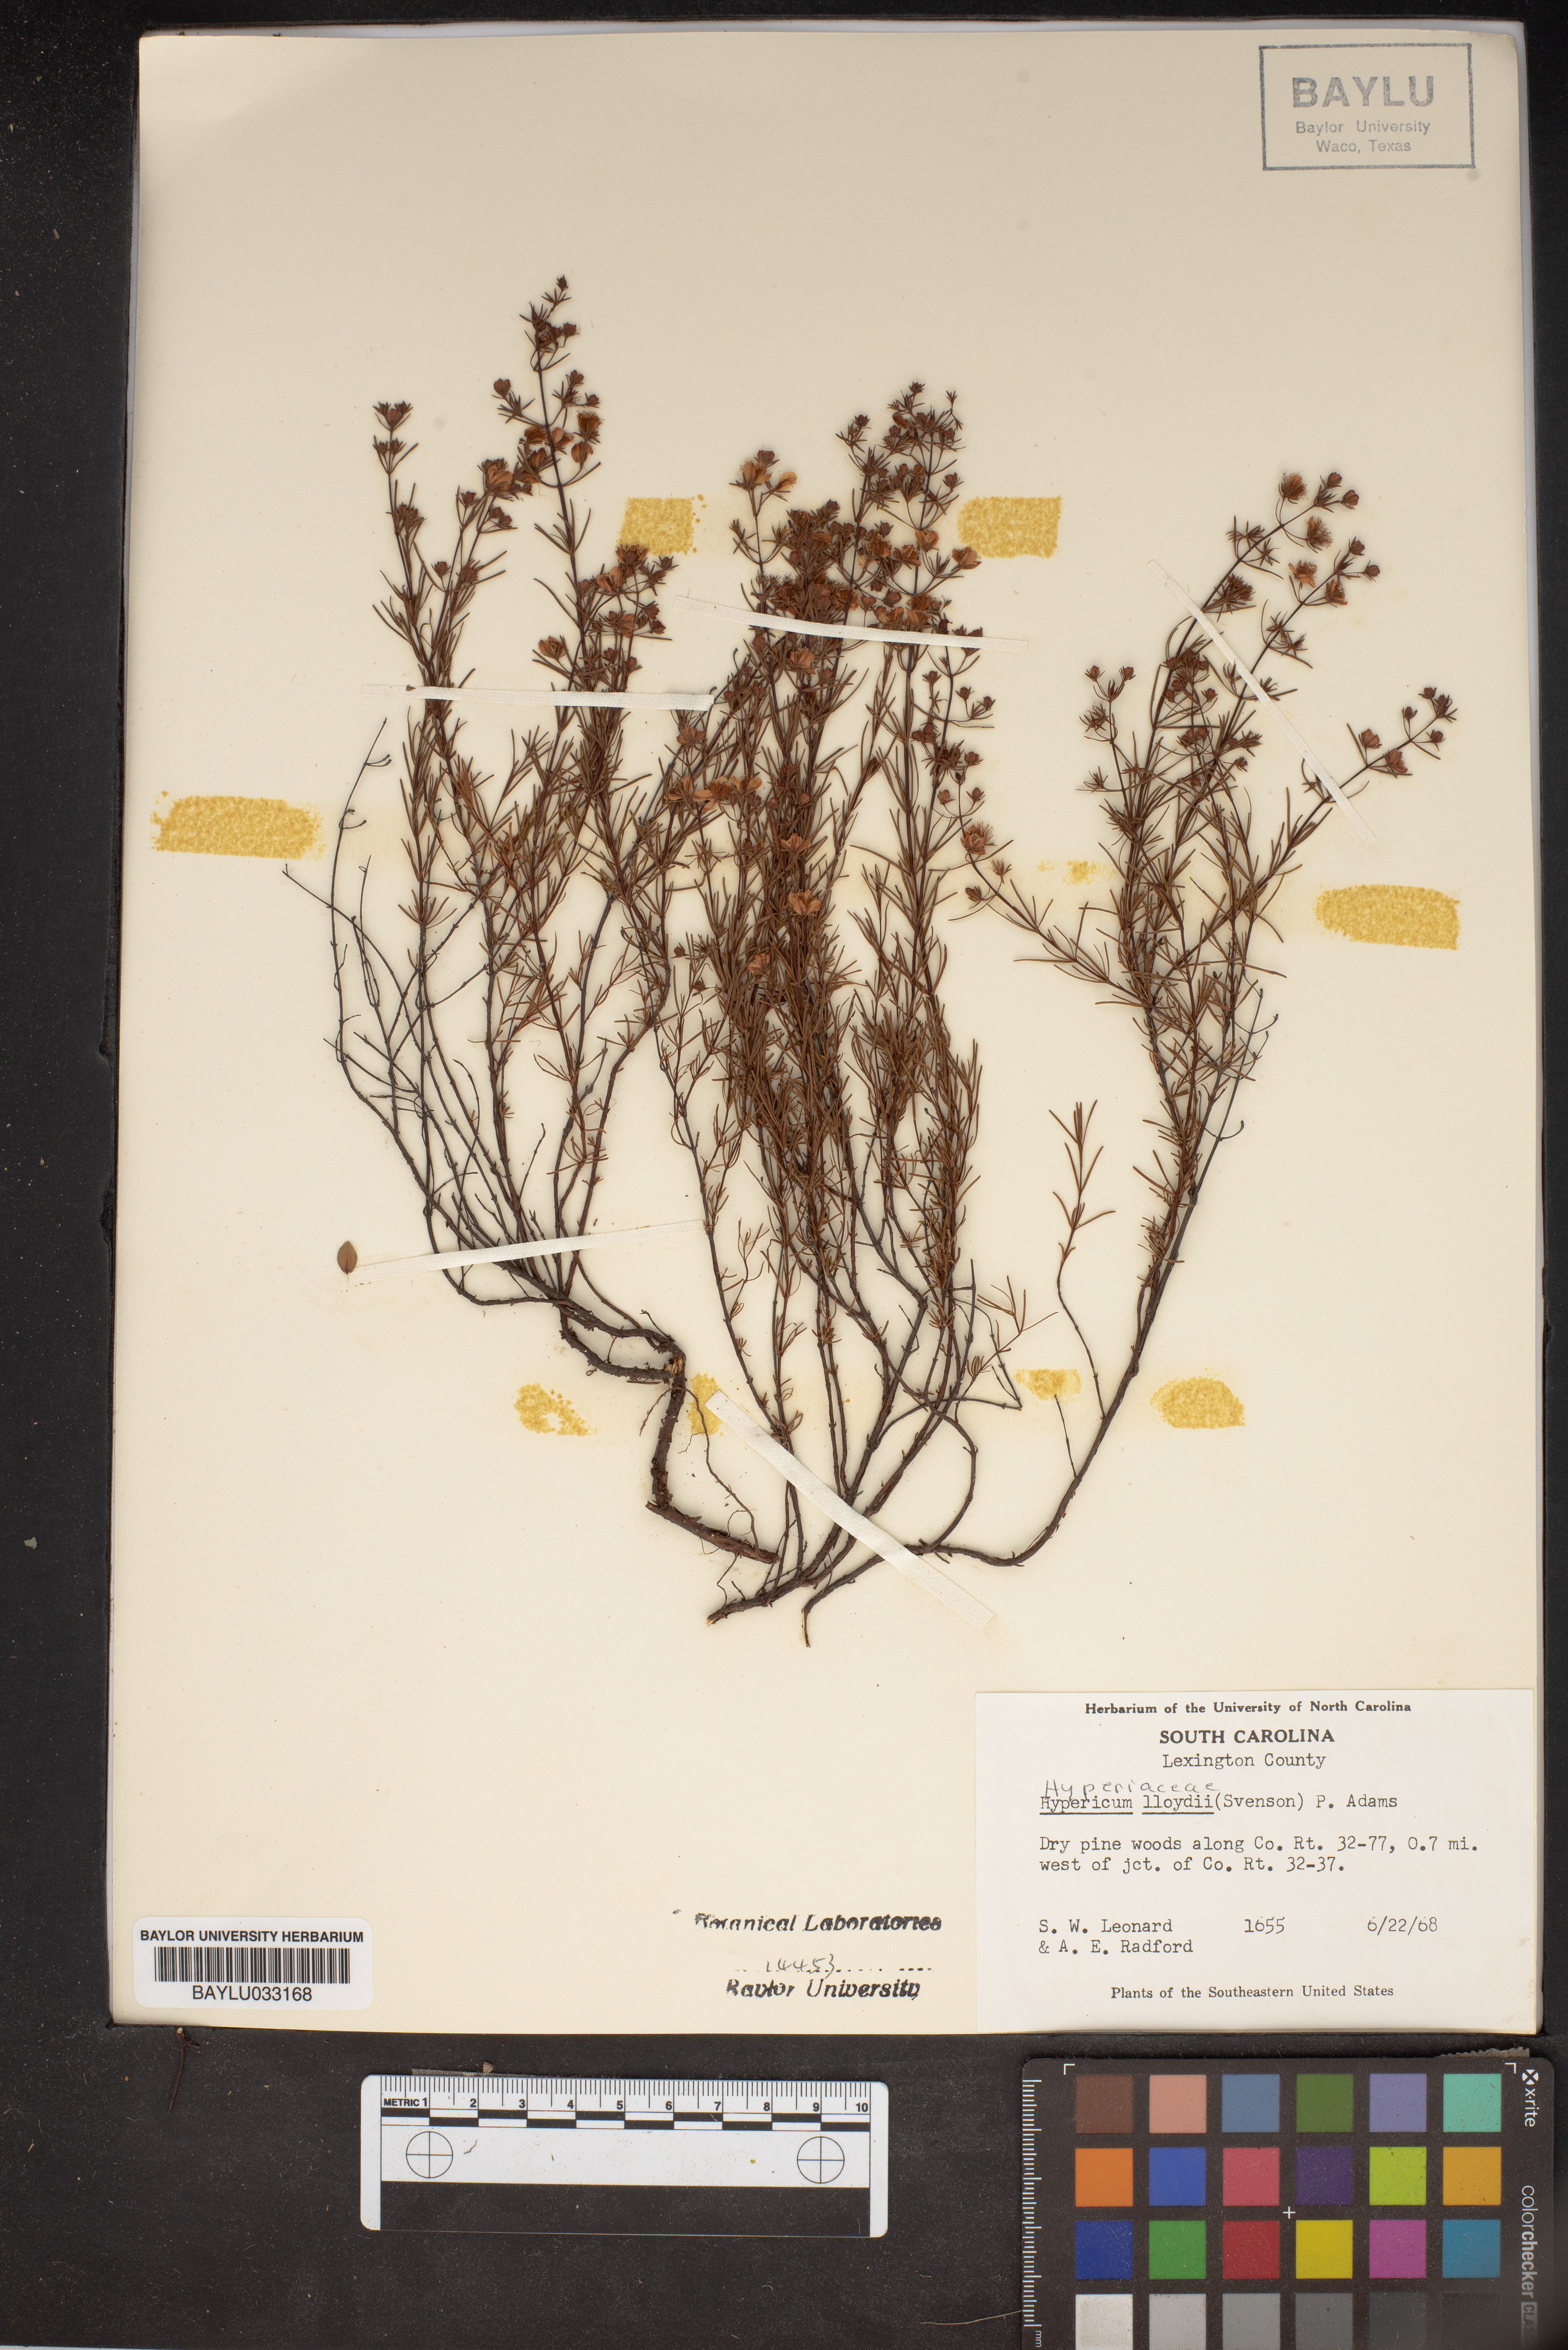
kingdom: Plantae
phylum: Tracheophyta
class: Magnoliopsida
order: Malpighiales
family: Hypericaceae
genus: Hypericum
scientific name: Hypericum lloydii
